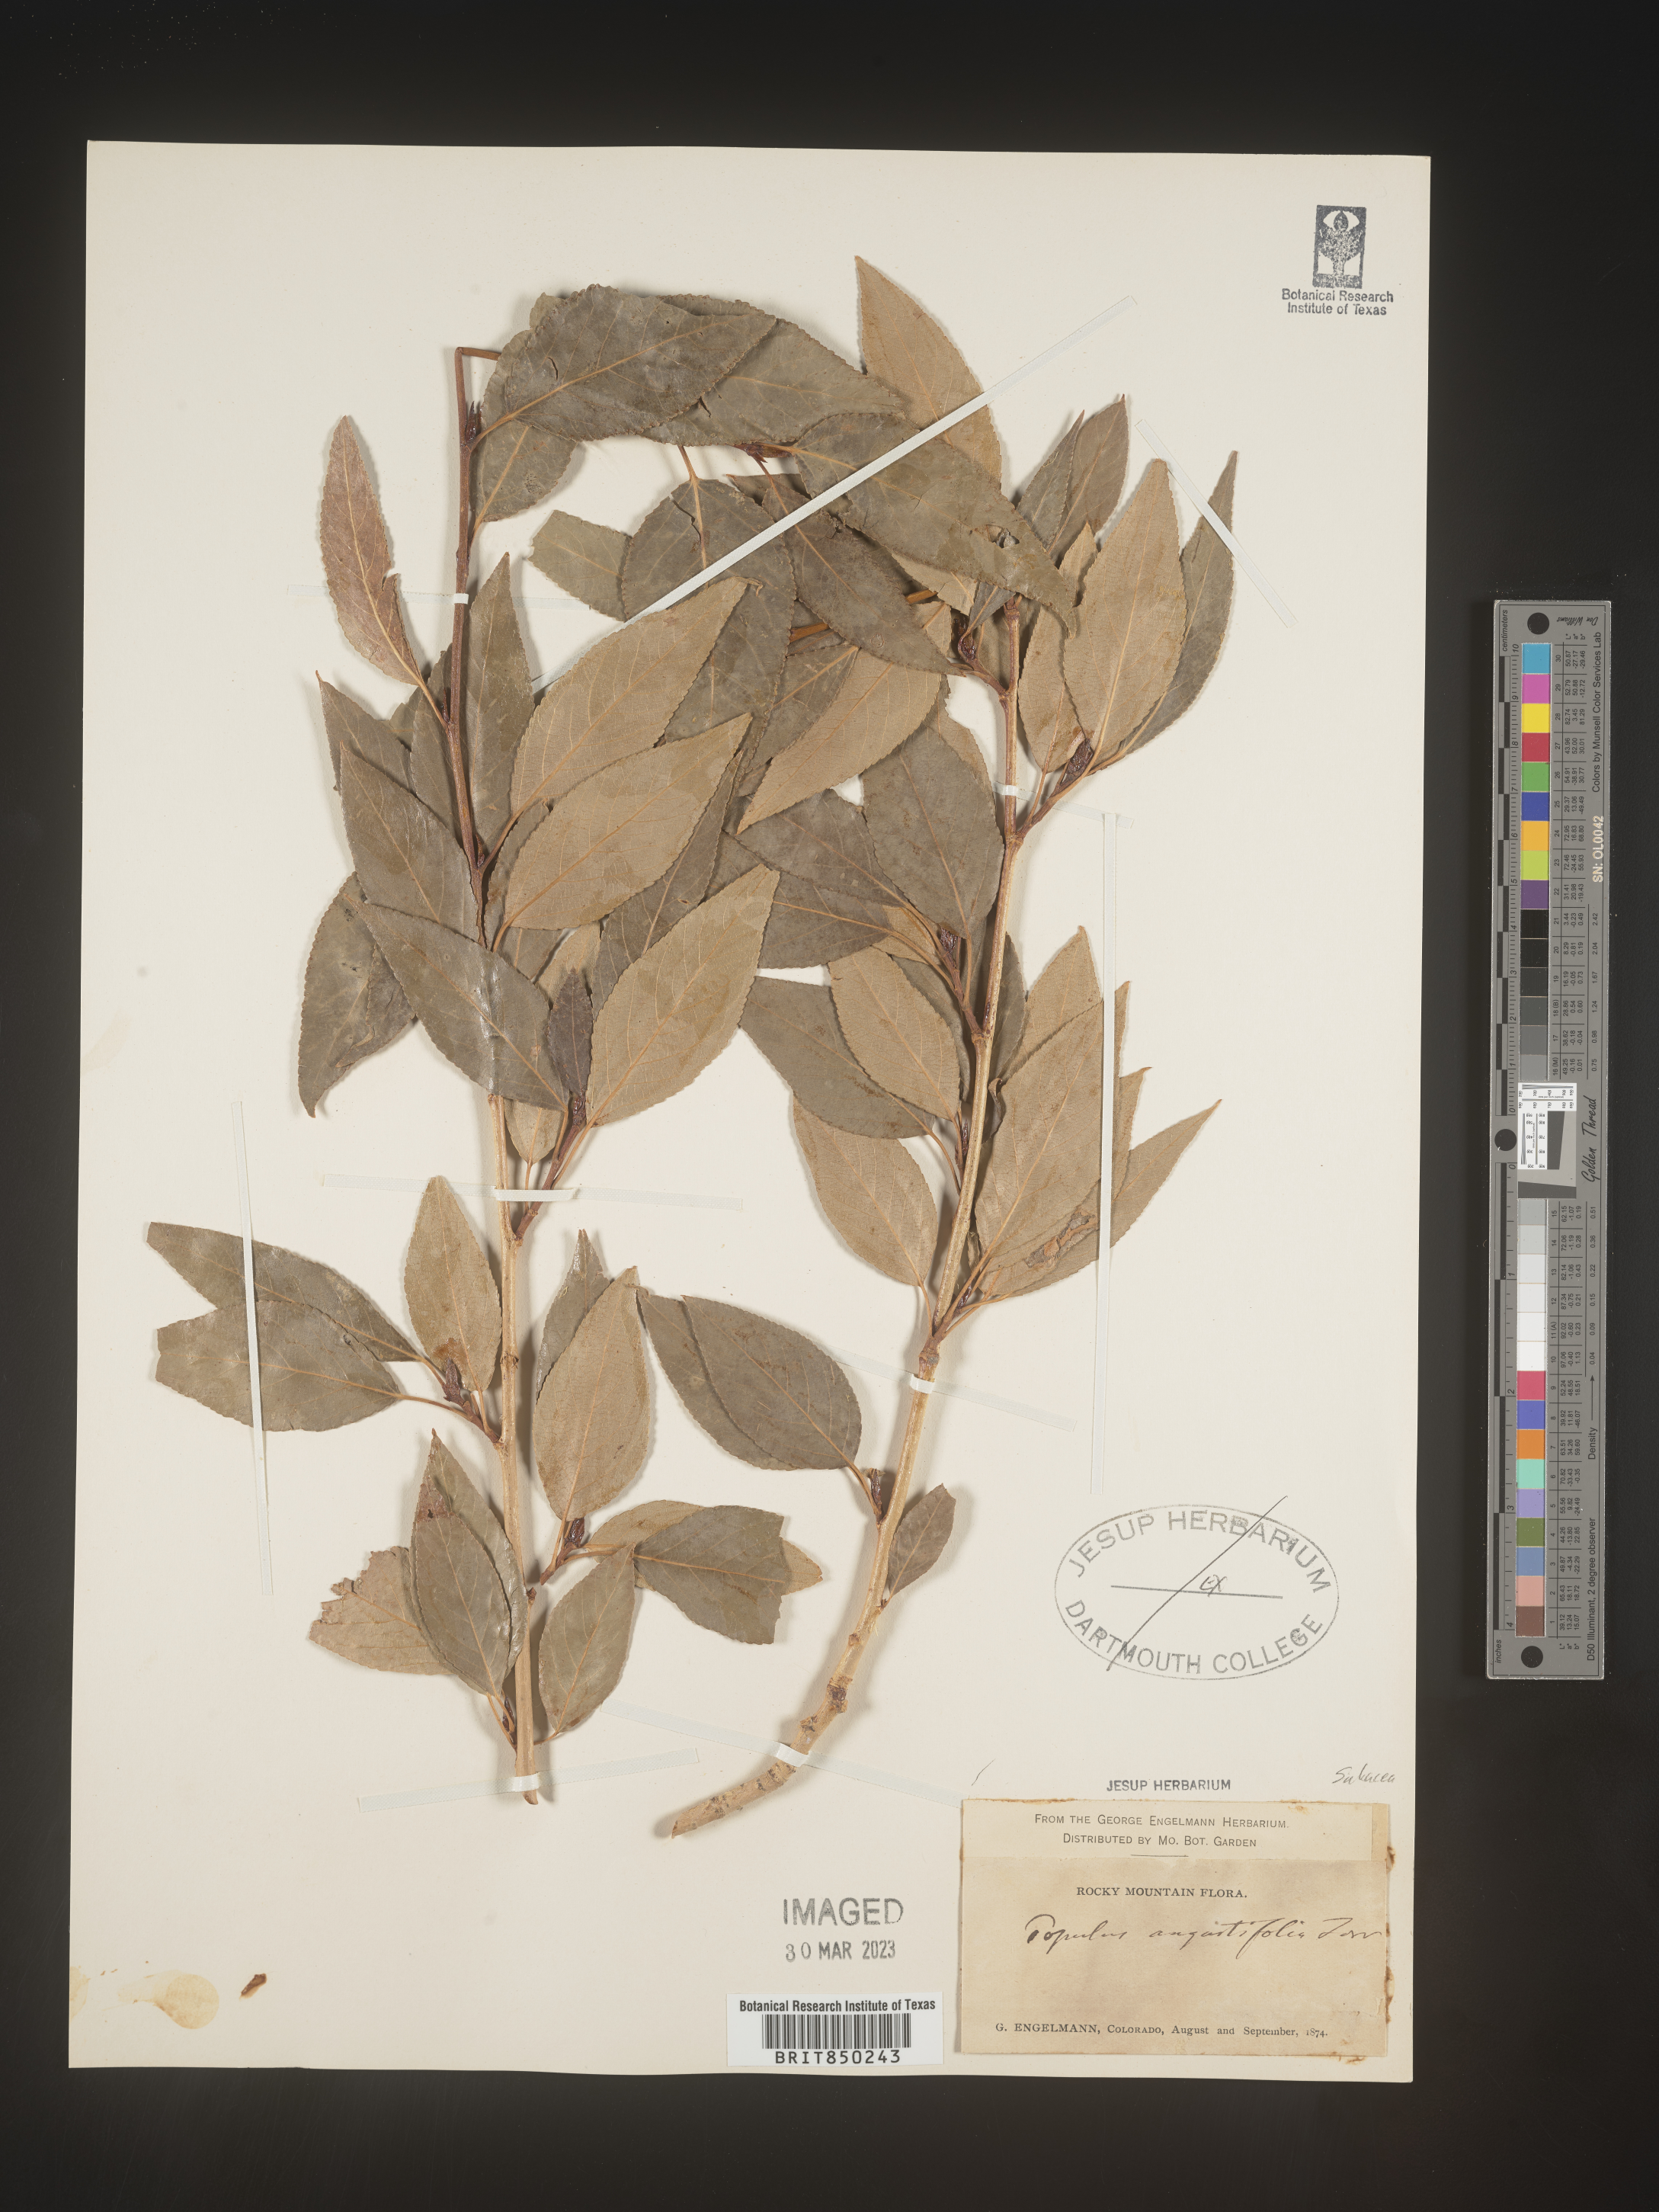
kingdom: Plantae
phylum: Tracheophyta
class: Magnoliopsida
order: Malpighiales
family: Salicaceae
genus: Populus
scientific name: Populus angustifolia
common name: Willow cottonwood
